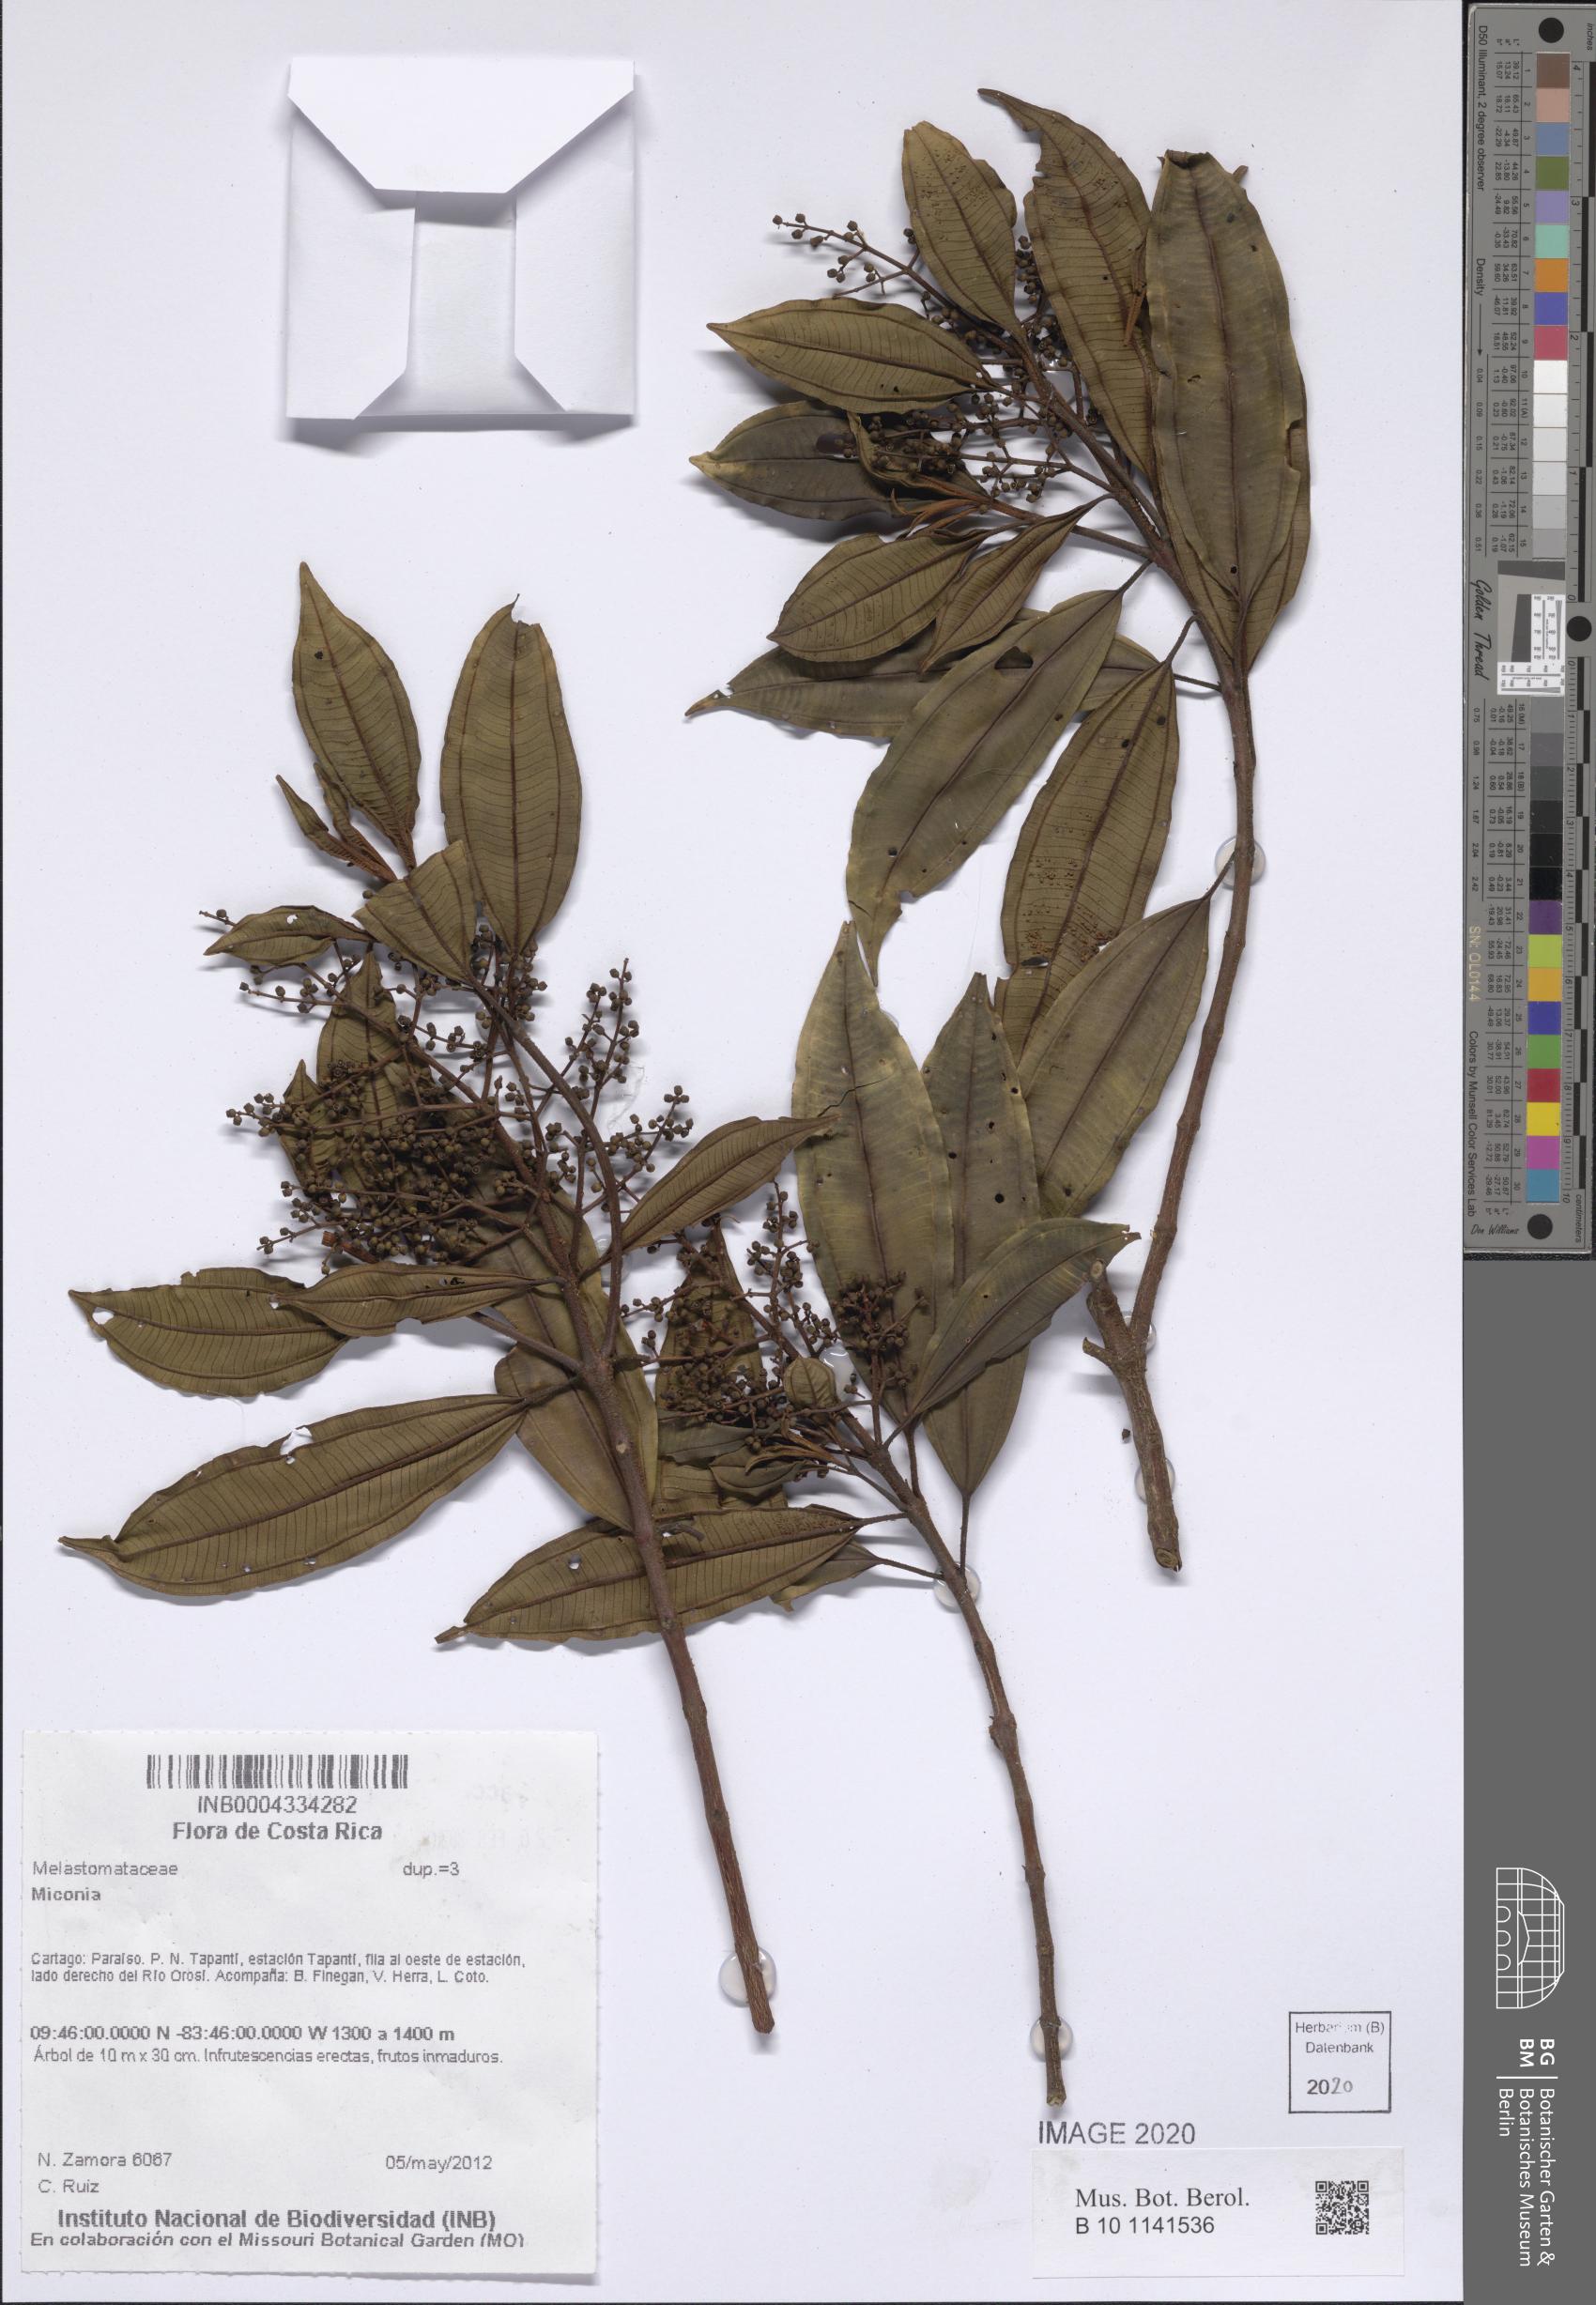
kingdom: Plantae
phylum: Tracheophyta
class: Magnoliopsida
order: Myrtales
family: Melastomataceae
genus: Miconia
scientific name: Miconia
